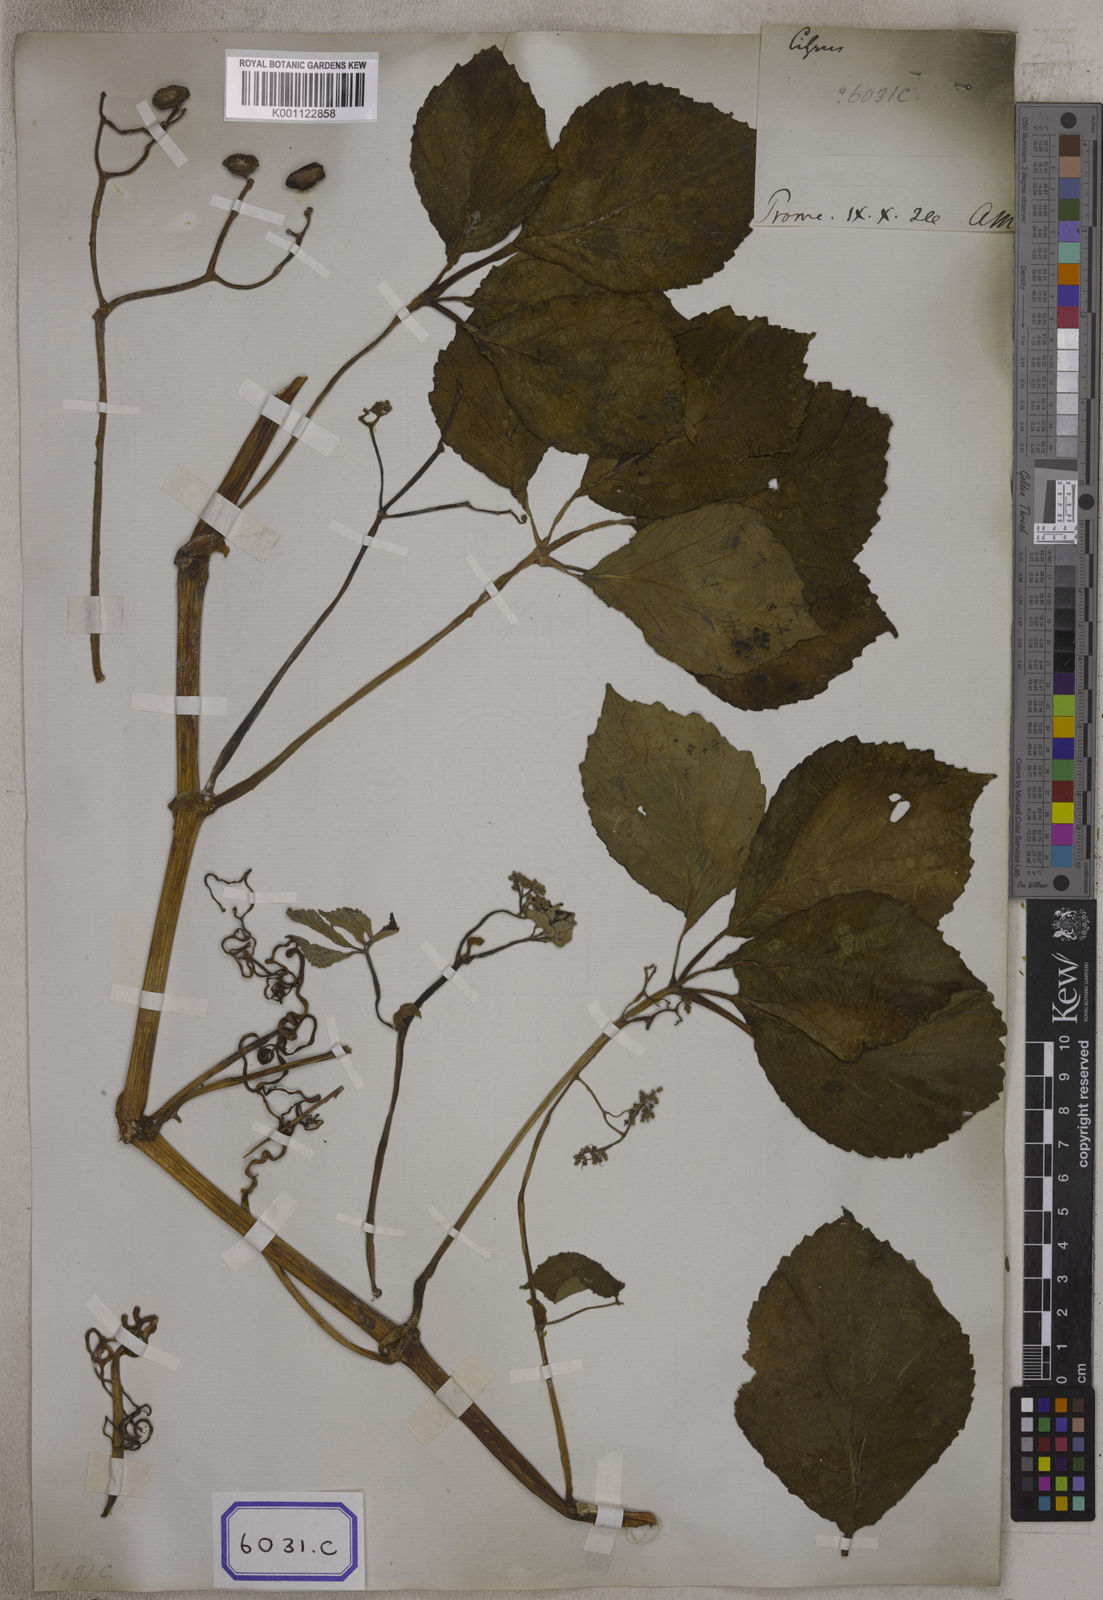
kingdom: Plantae
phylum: Tracheophyta
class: Magnoliopsida
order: Vitales
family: Vitaceae
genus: Cayratia
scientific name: Cayratia auriculata
